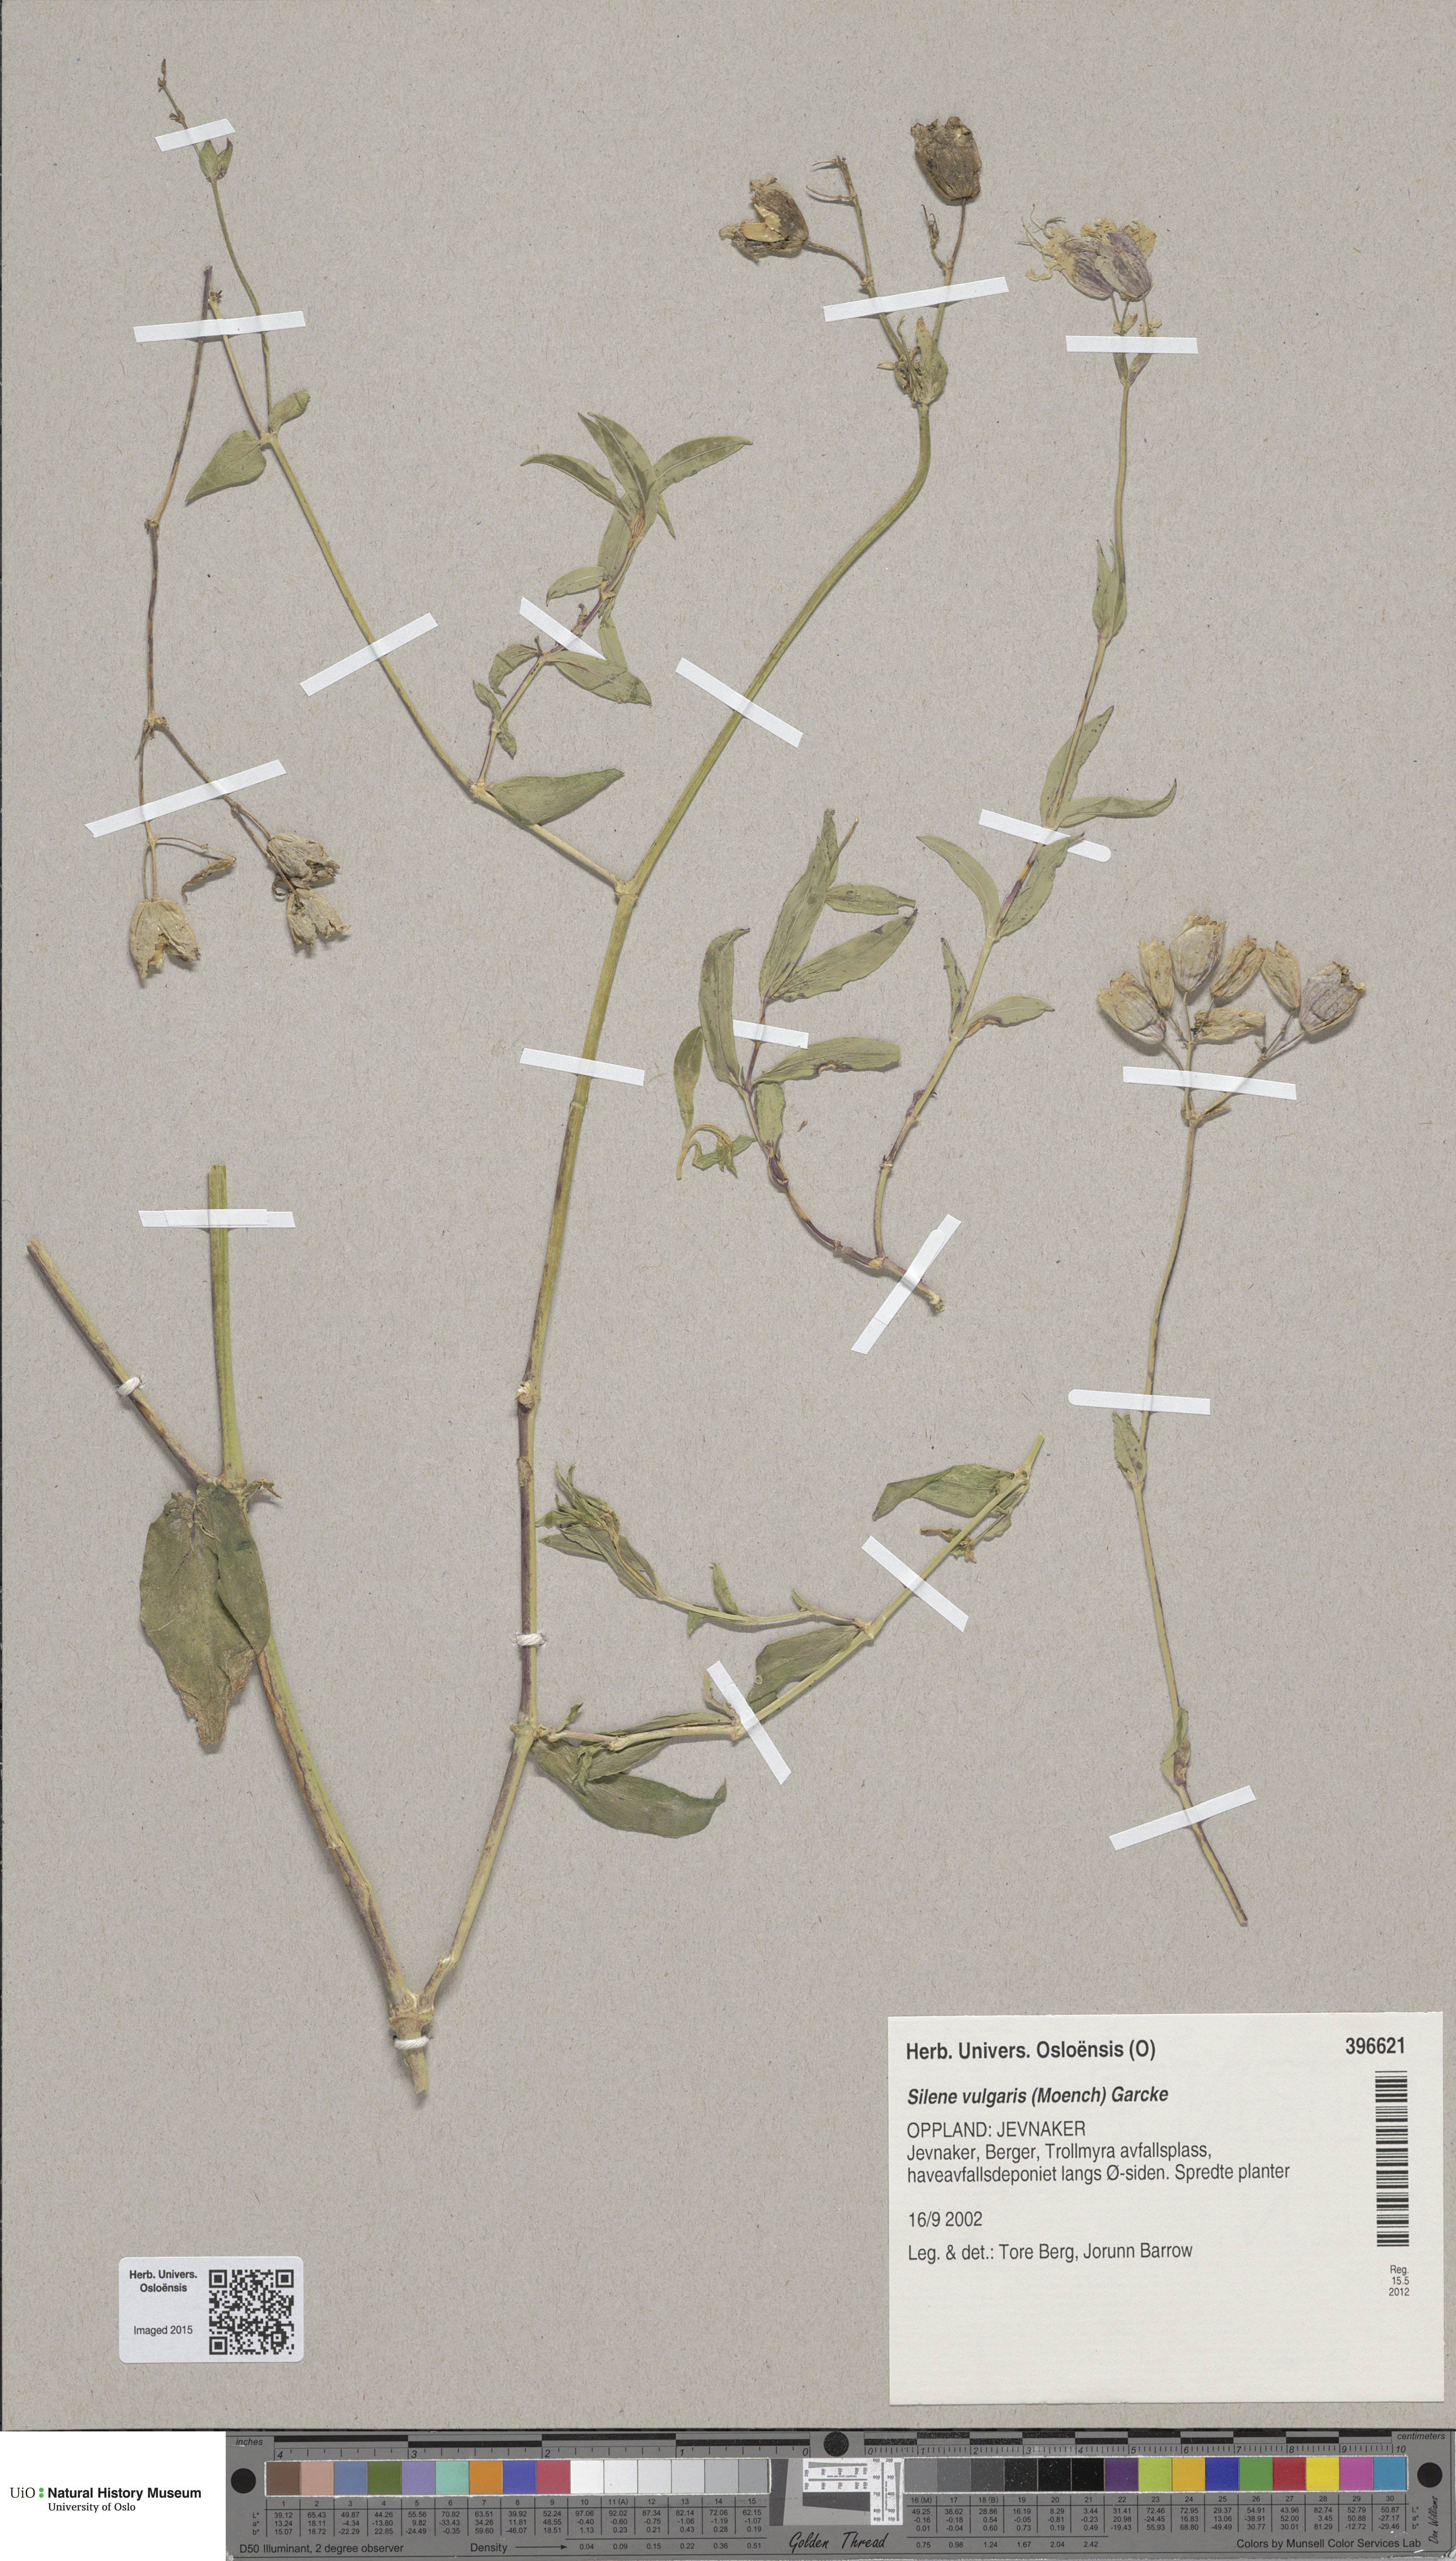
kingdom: Plantae
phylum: Tracheophyta
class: Magnoliopsida
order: Caryophyllales
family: Caryophyllaceae
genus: Silene
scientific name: Silene vulgaris
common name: Bladder campion
